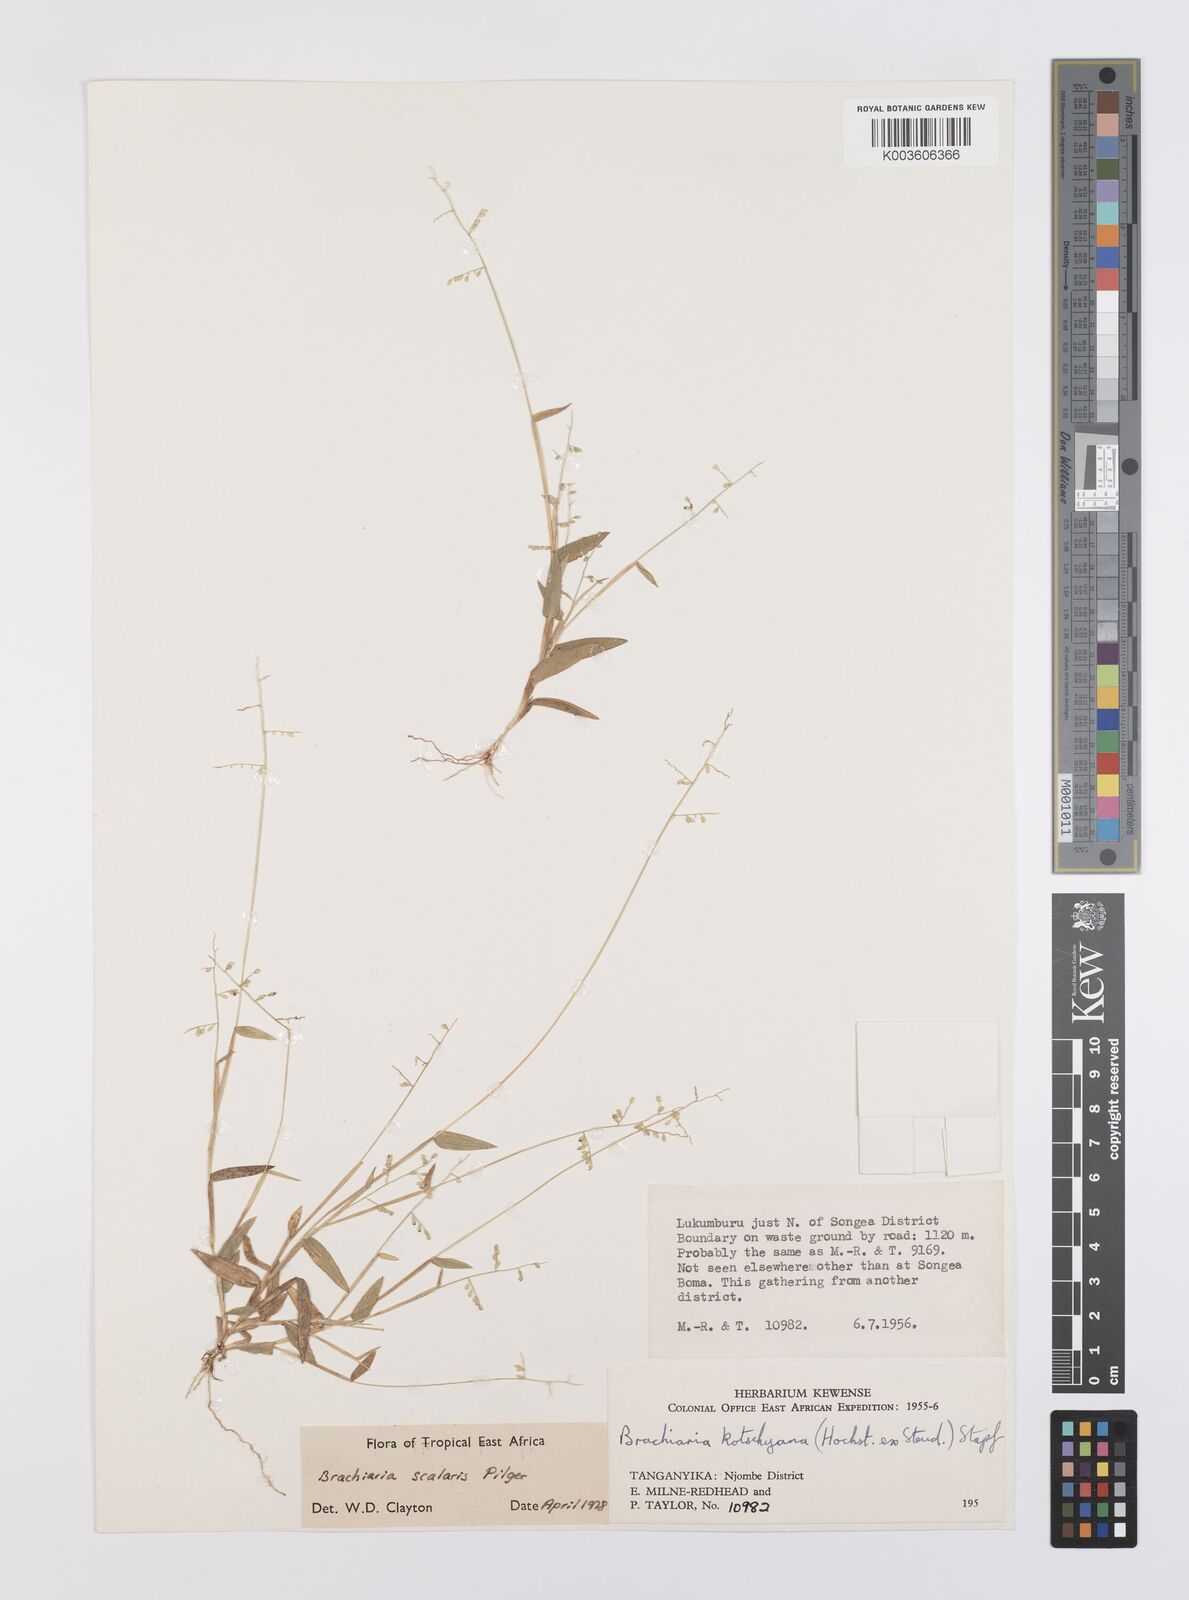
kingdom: Plantae
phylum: Tracheophyta
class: Liliopsida
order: Poales
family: Poaceae
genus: Urochloa
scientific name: Urochloa comata
